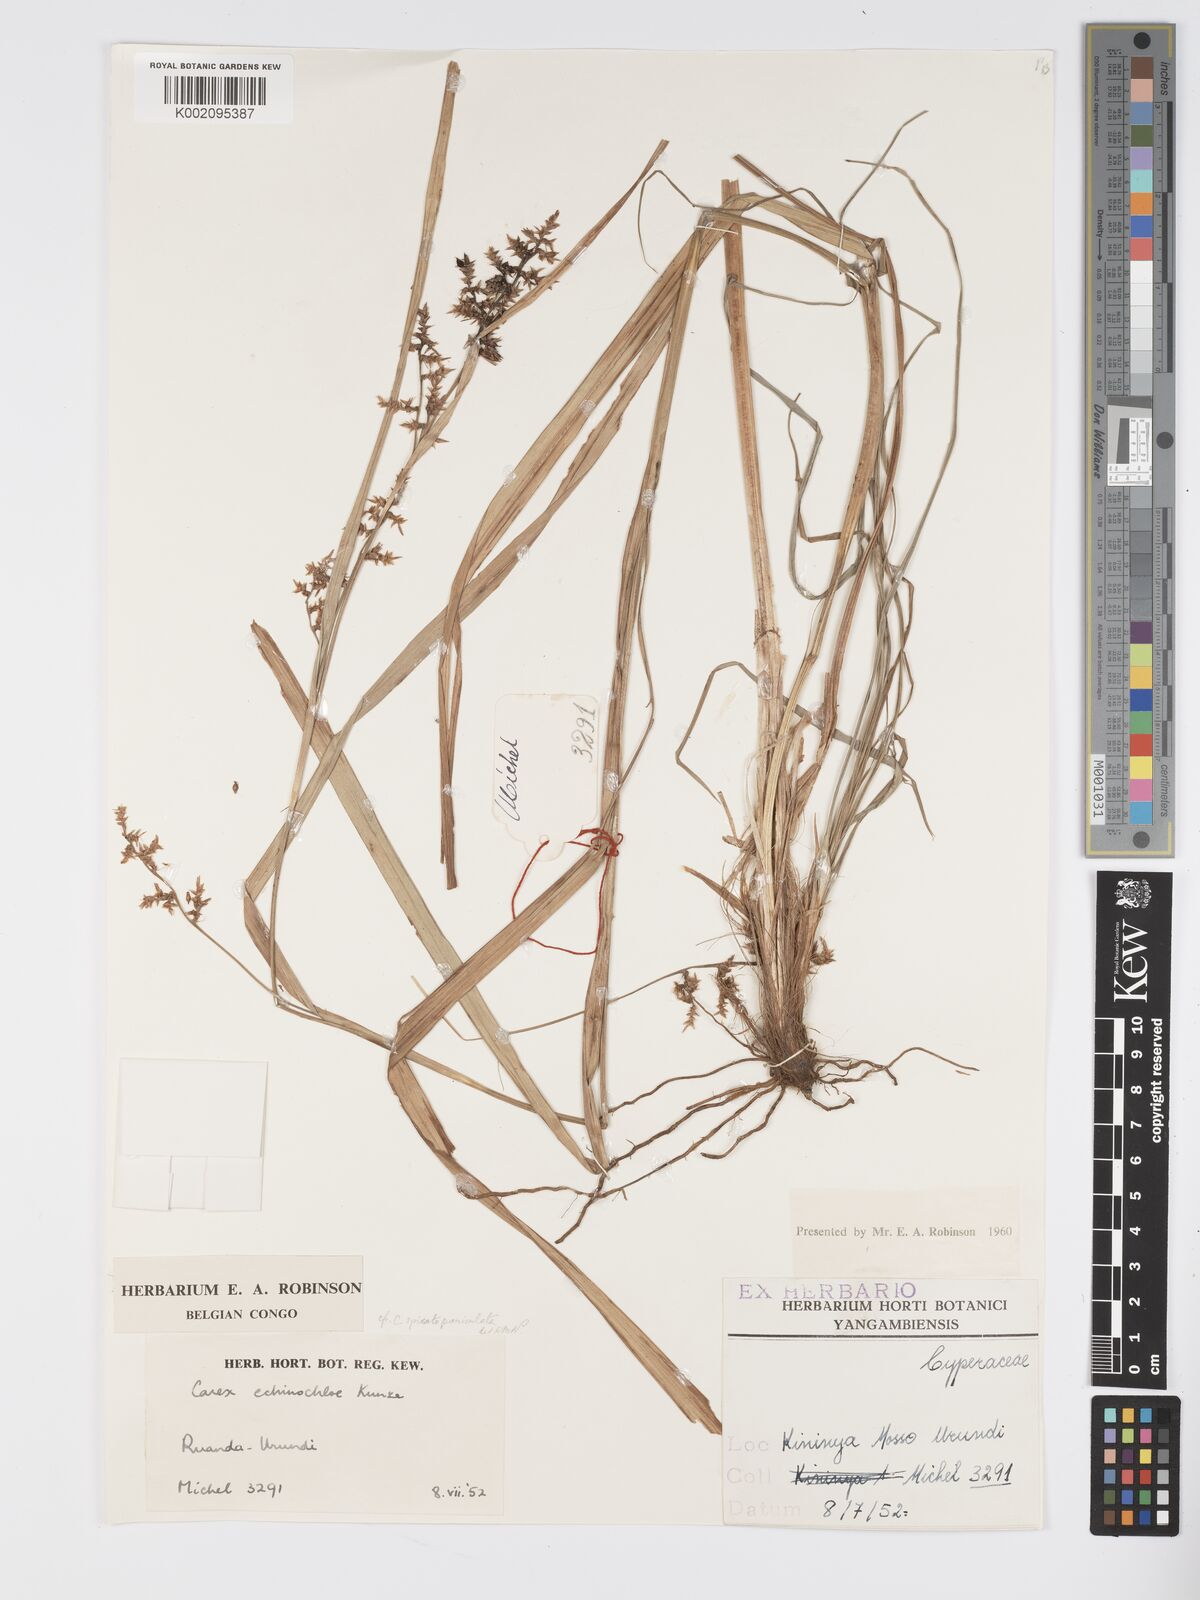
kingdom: Plantae
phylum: Tracheophyta
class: Liliopsida
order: Poales
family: Cyperaceae
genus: Carex
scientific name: Carex macrophyllidion
